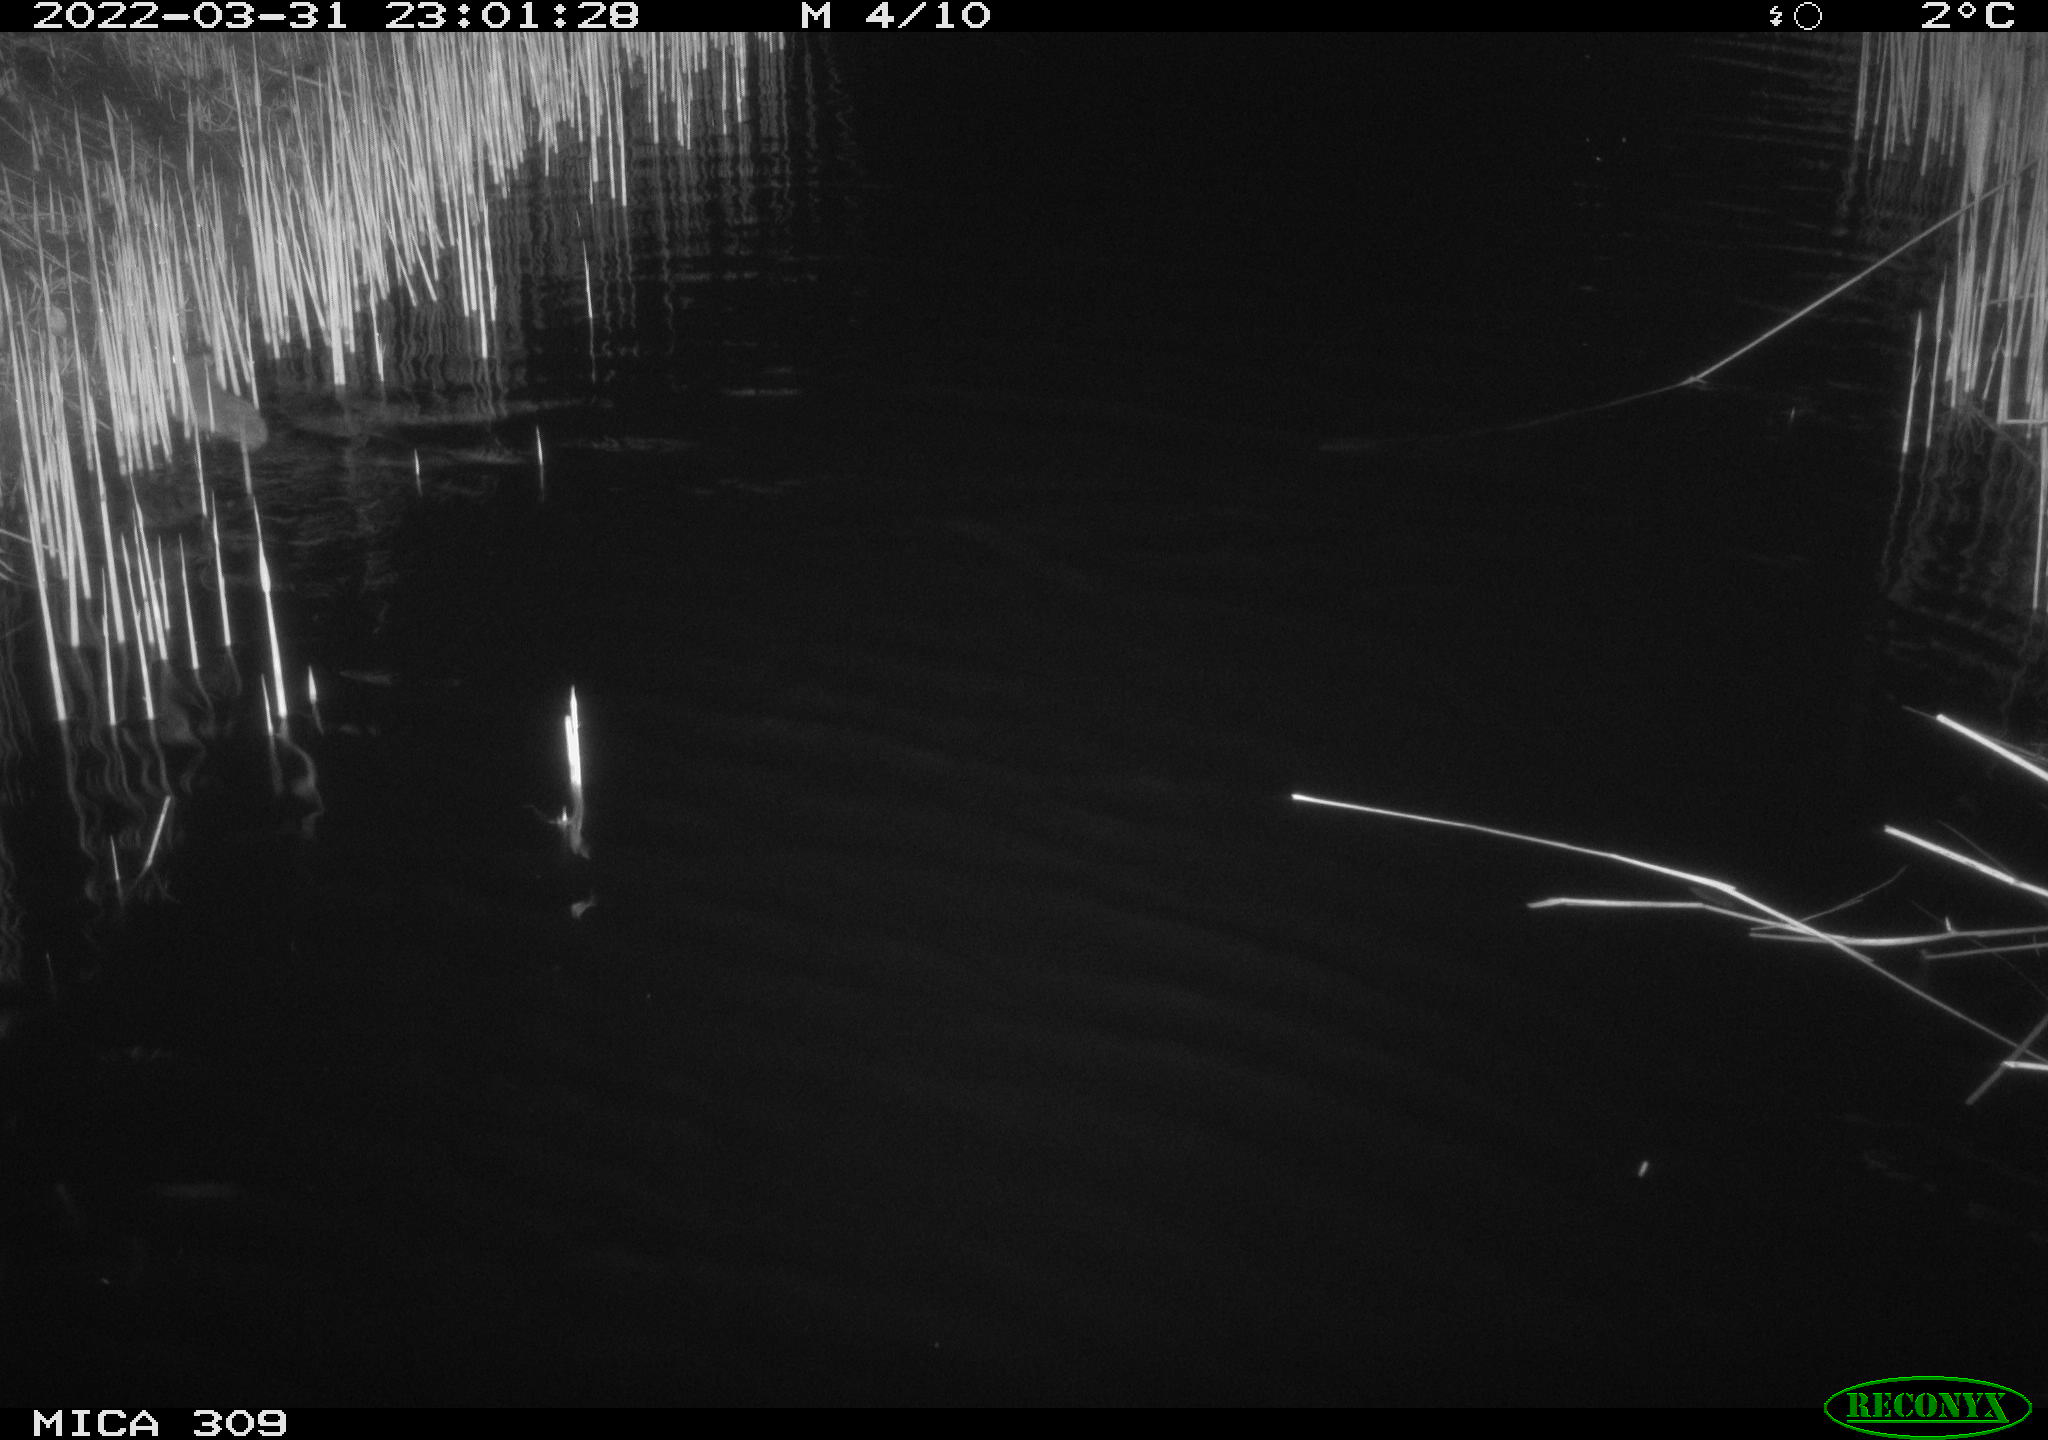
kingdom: Animalia
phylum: Chordata
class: Mammalia
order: Rodentia
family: Muridae
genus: Rattus
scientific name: Rattus norvegicus
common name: Brown rat
